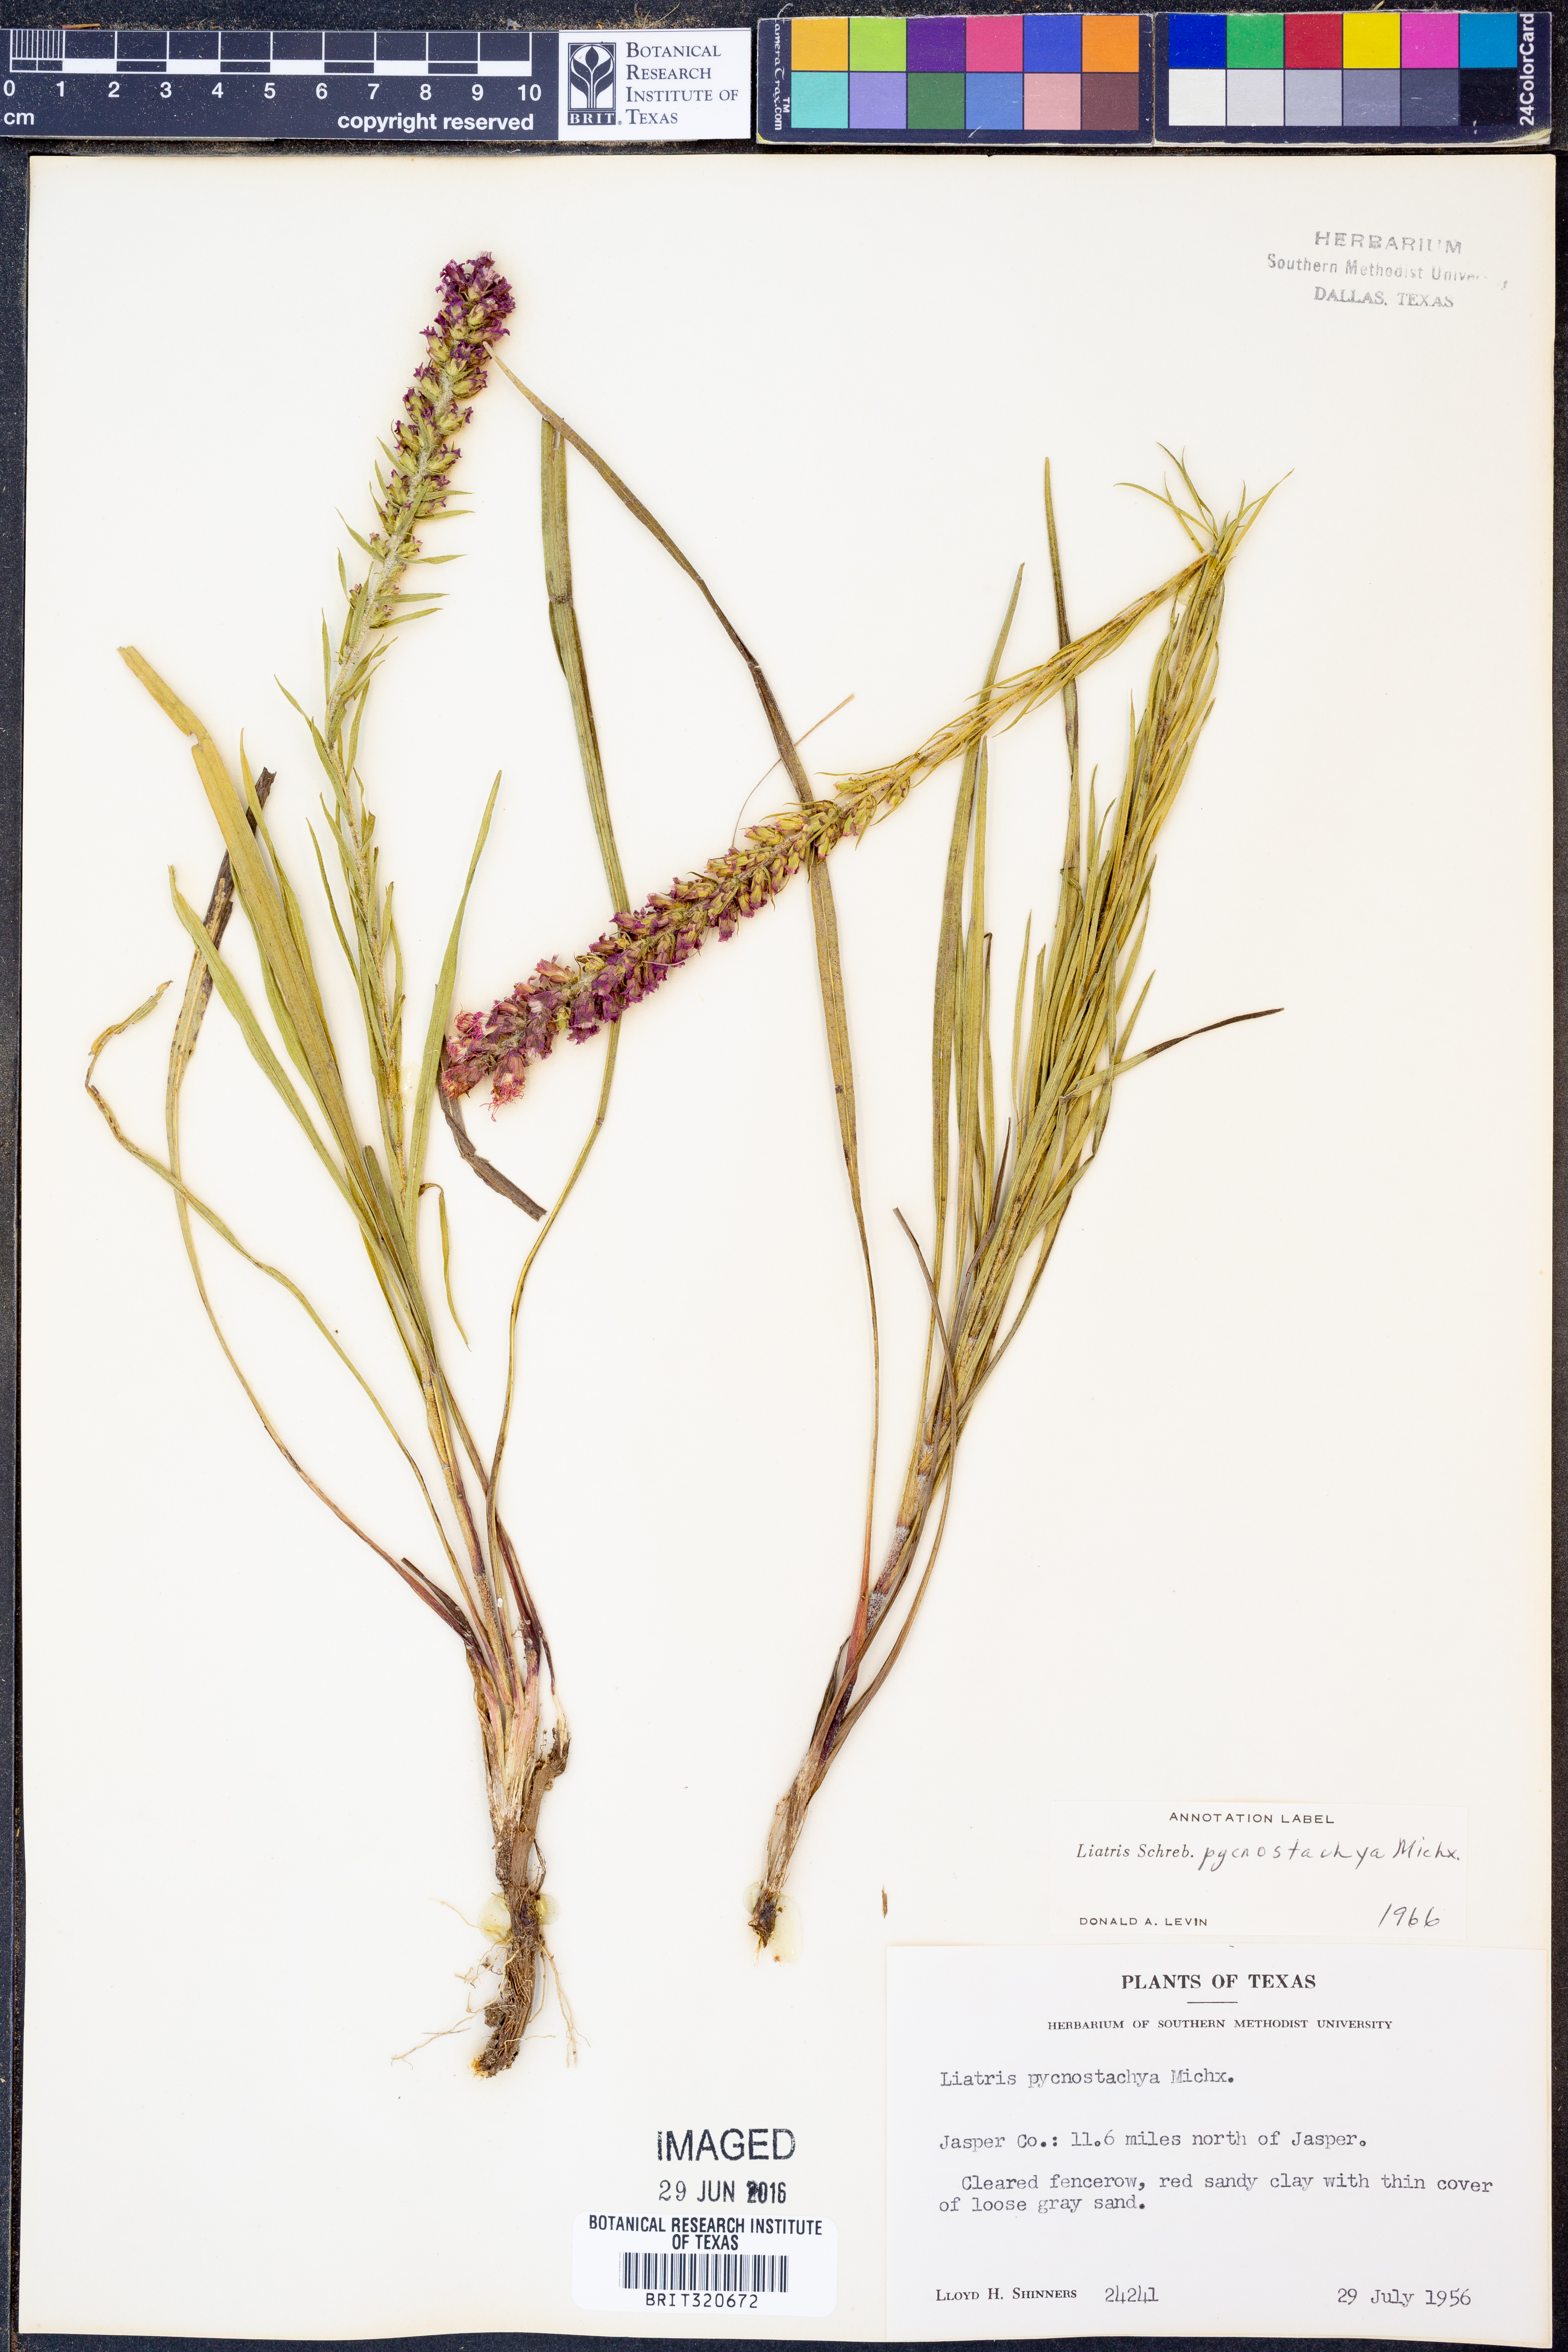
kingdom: Plantae
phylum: Tracheophyta
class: Magnoliopsida
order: Asterales
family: Asteraceae
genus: Liatris
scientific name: Liatris pycnostachya
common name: Cattail gayfeather
